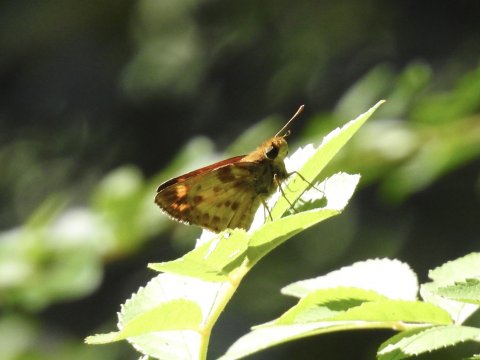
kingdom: Animalia
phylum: Arthropoda
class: Insecta
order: Lepidoptera
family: Hesperiidae
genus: Lon
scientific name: Lon zabulon
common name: Zabulon Skipper
